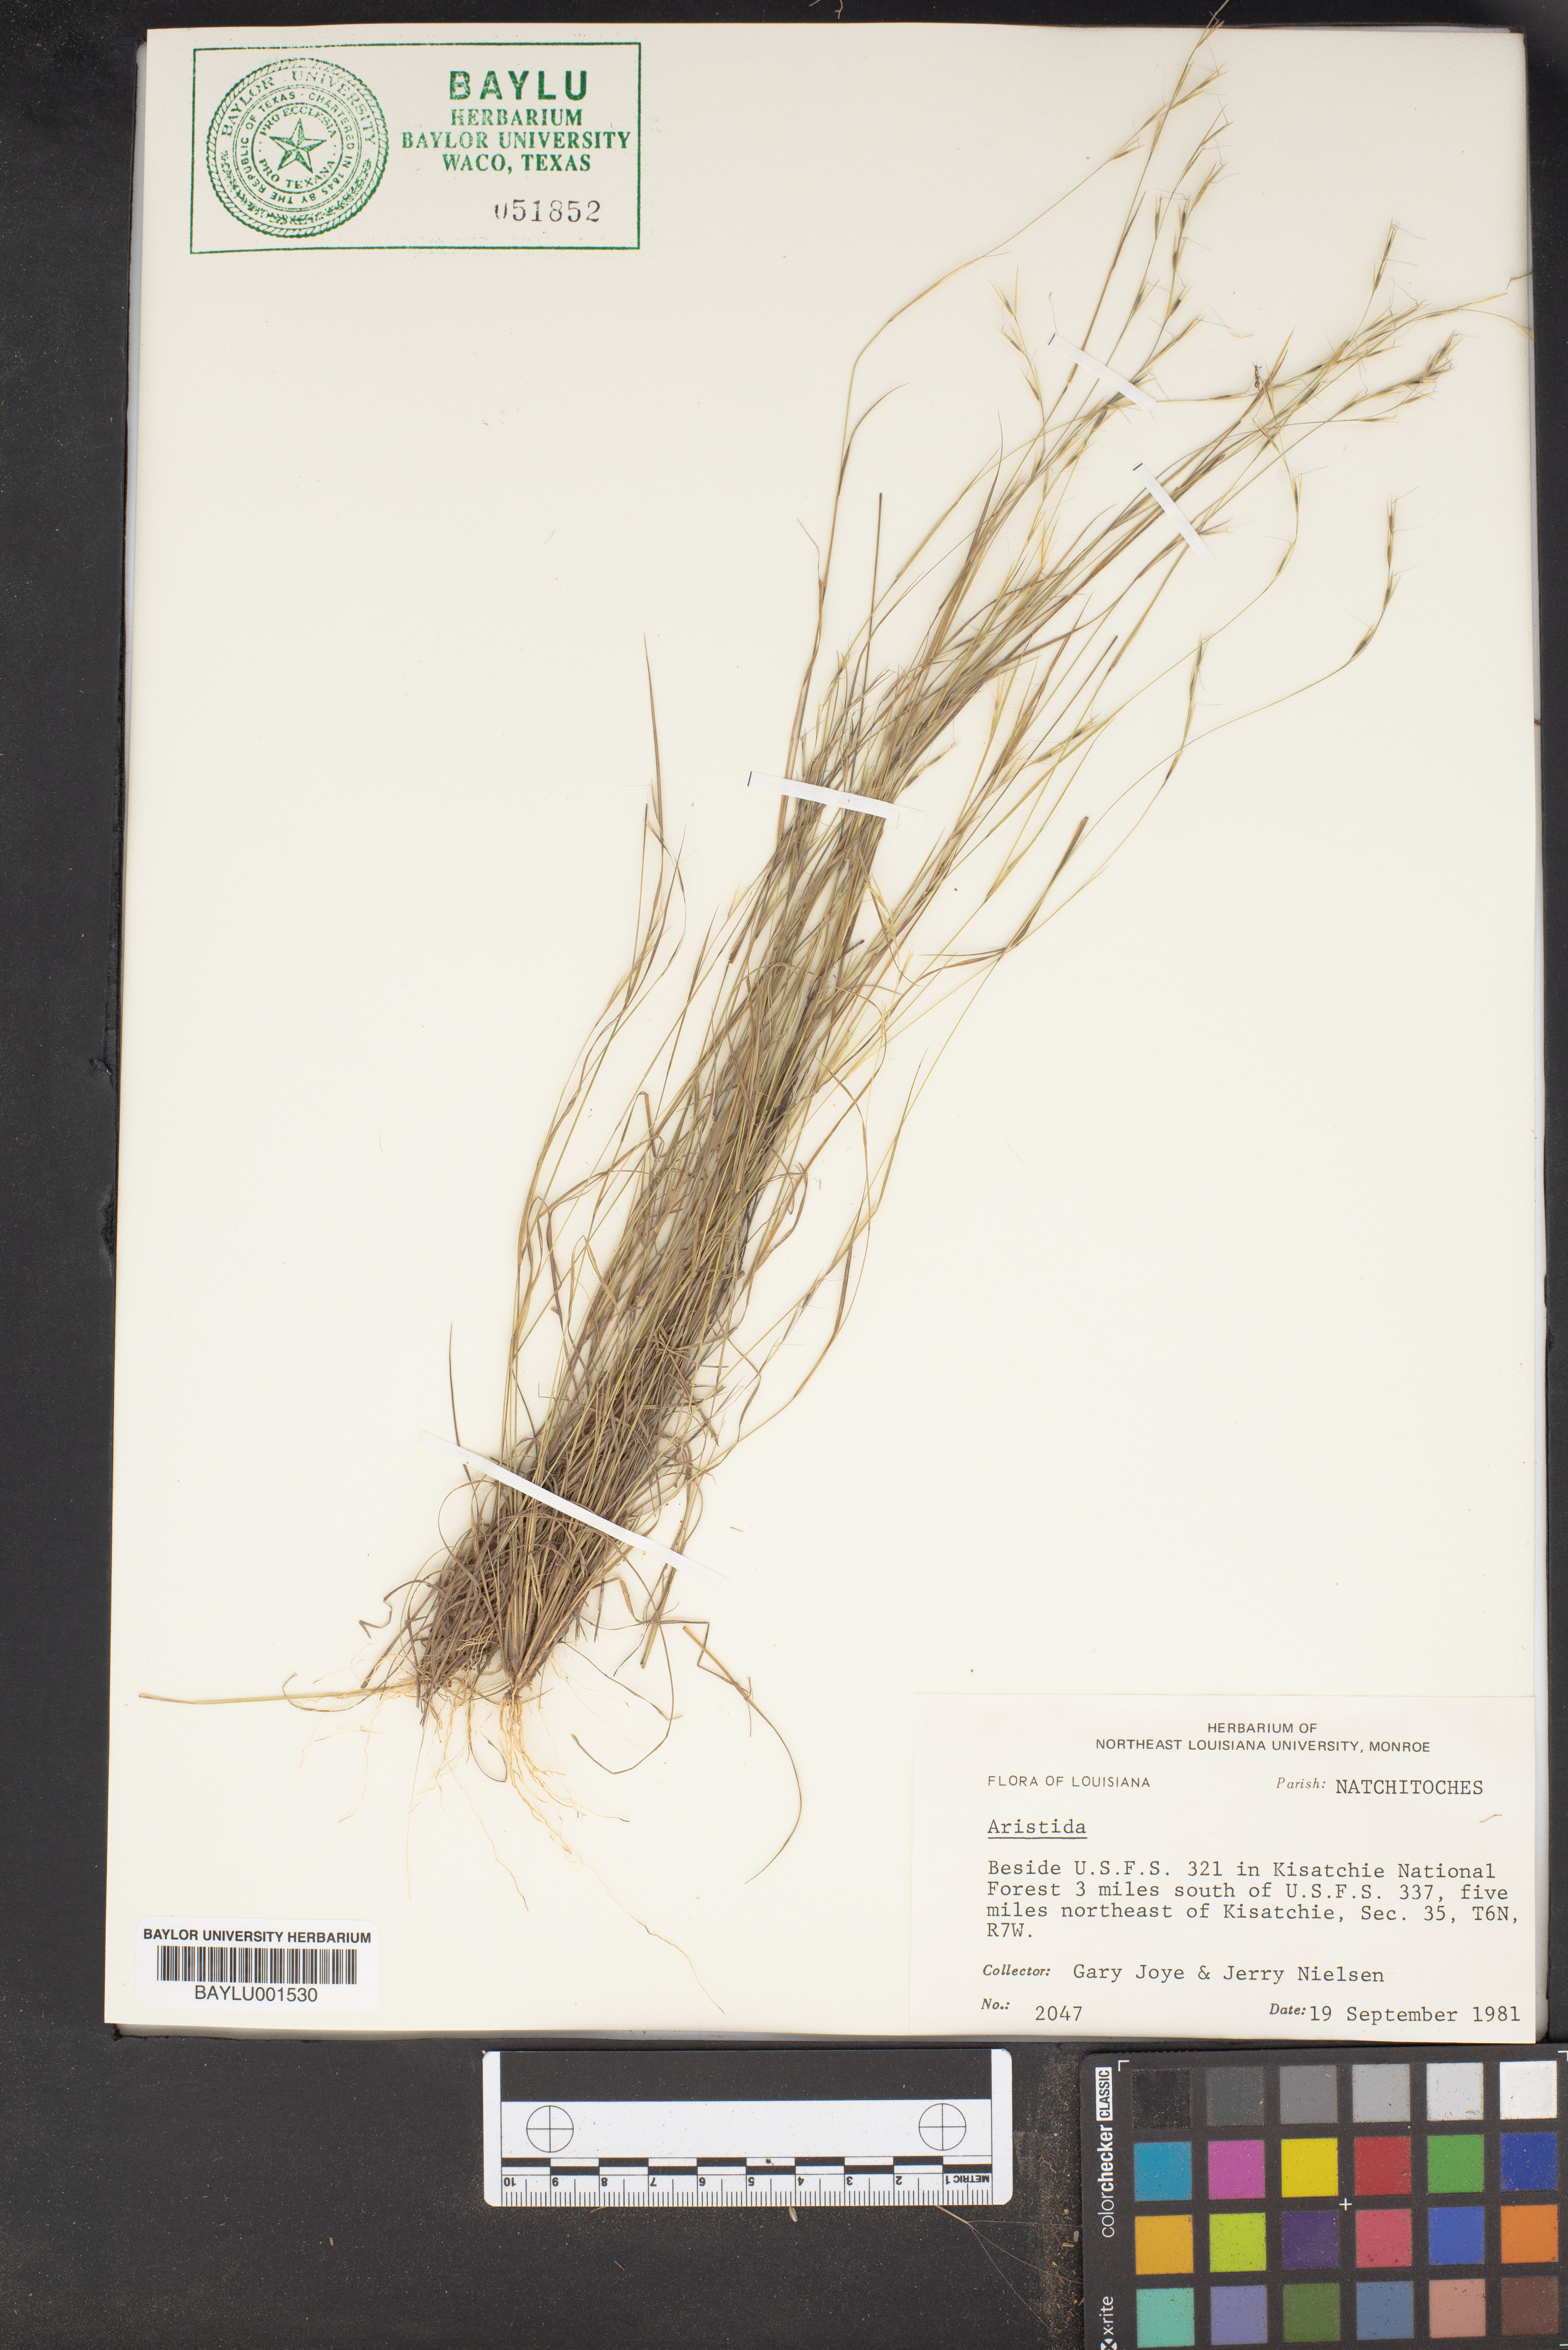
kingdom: Plantae
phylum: Tracheophyta
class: Liliopsida
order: Poales
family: Poaceae
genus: Aristida
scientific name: Aristida
